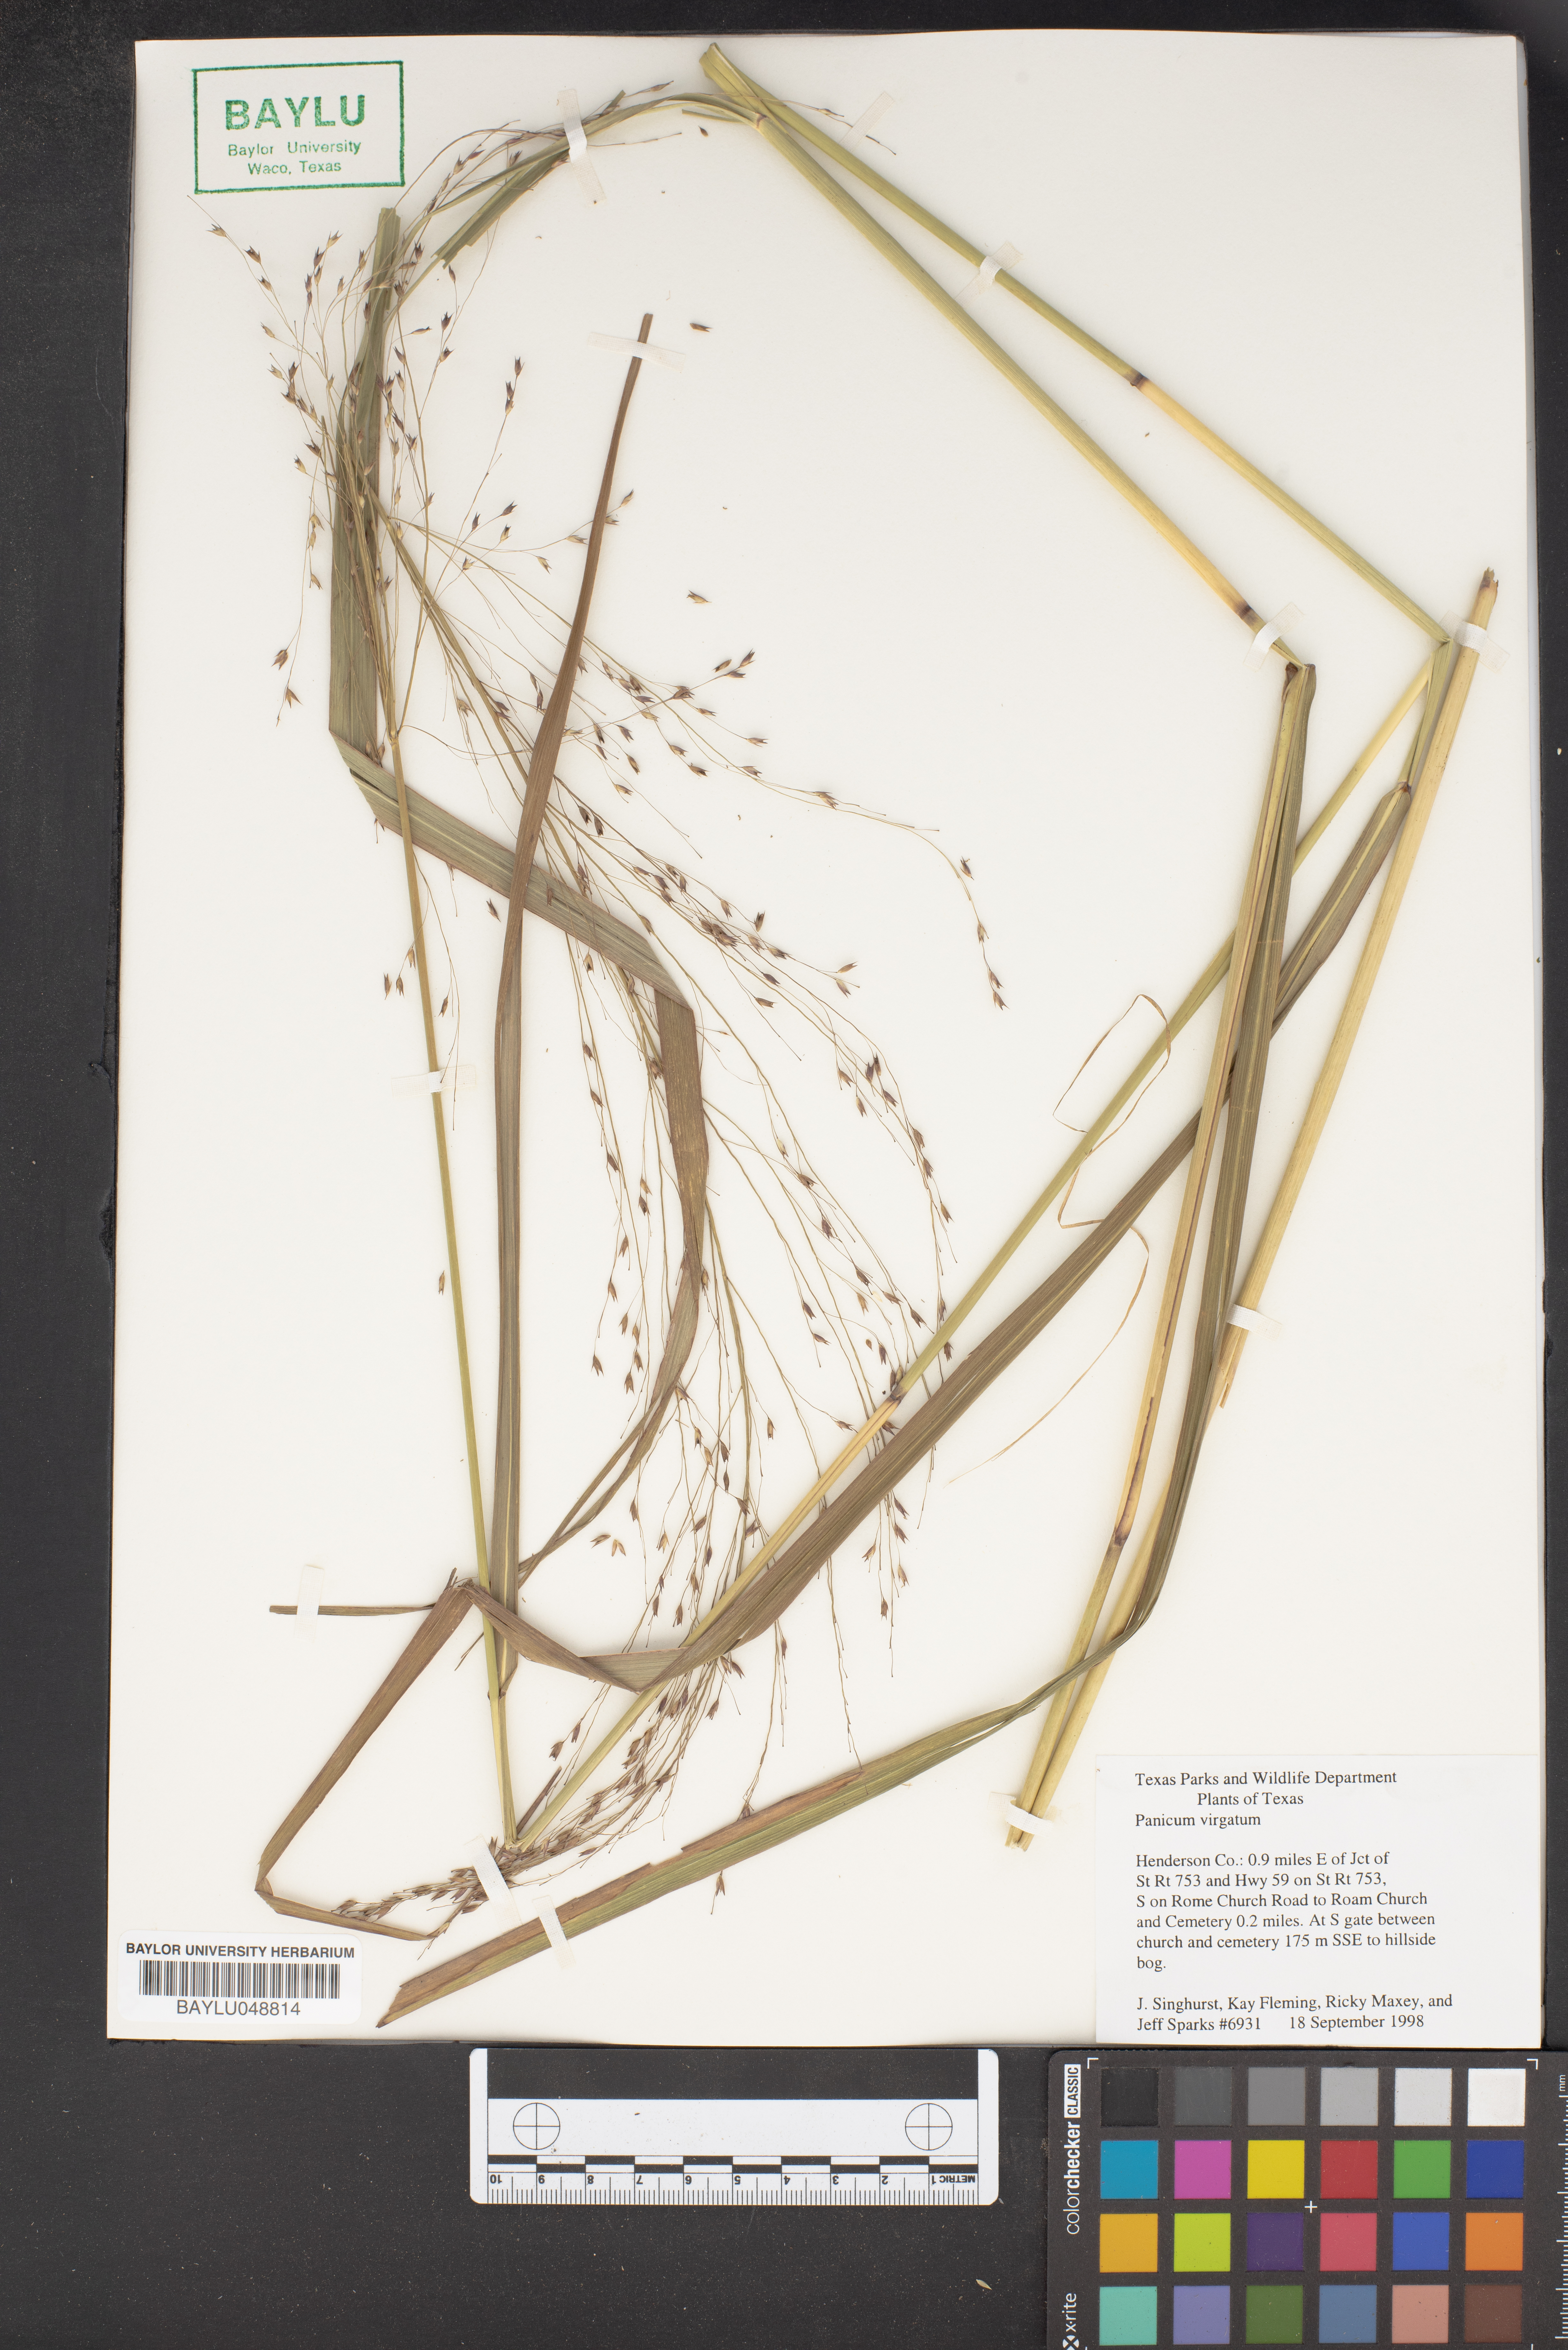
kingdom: Plantae
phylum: Tracheophyta
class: Liliopsida
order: Poales
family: Poaceae
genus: Panicum
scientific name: Panicum virgatum
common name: Switchgrass
